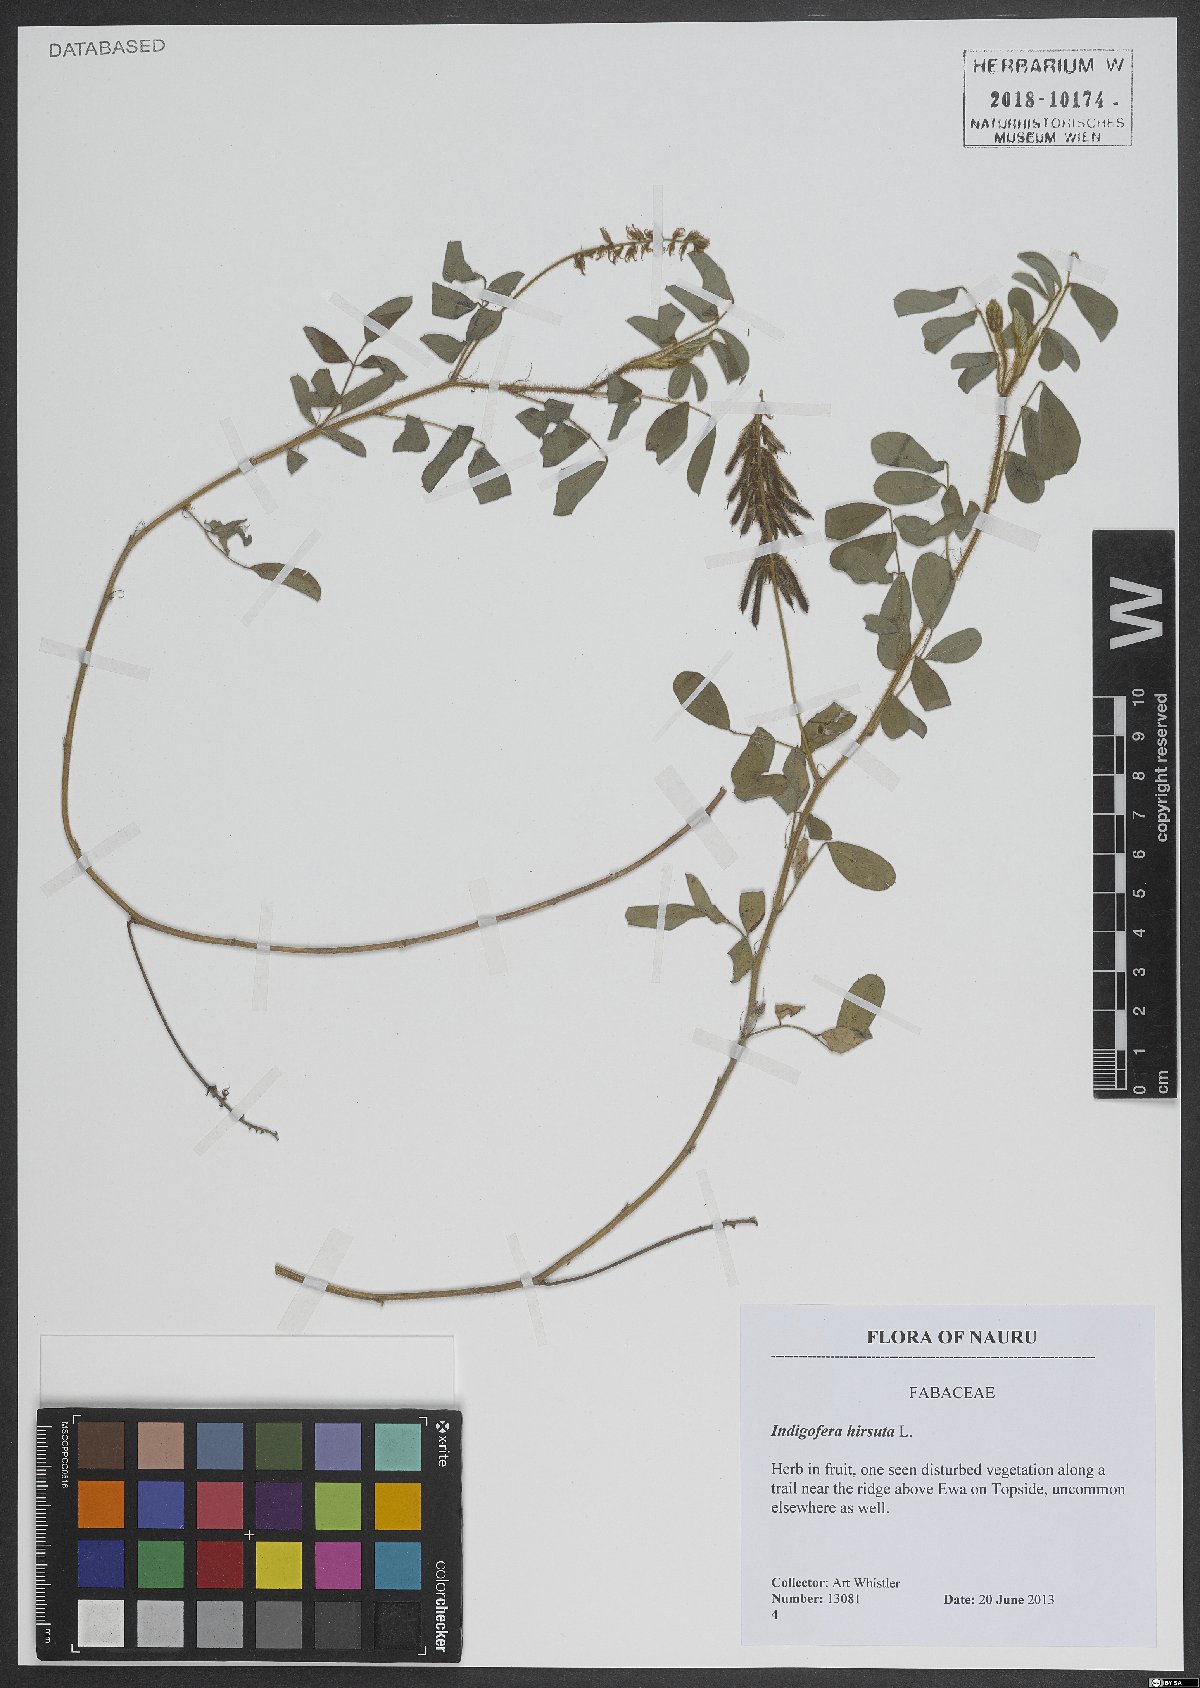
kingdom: Plantae
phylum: Tracheophyta
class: Magnoliopsida
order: Fabales
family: Fabaceae
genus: Indigofera
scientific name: Indigofera hirsuta
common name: Hairy indigo
